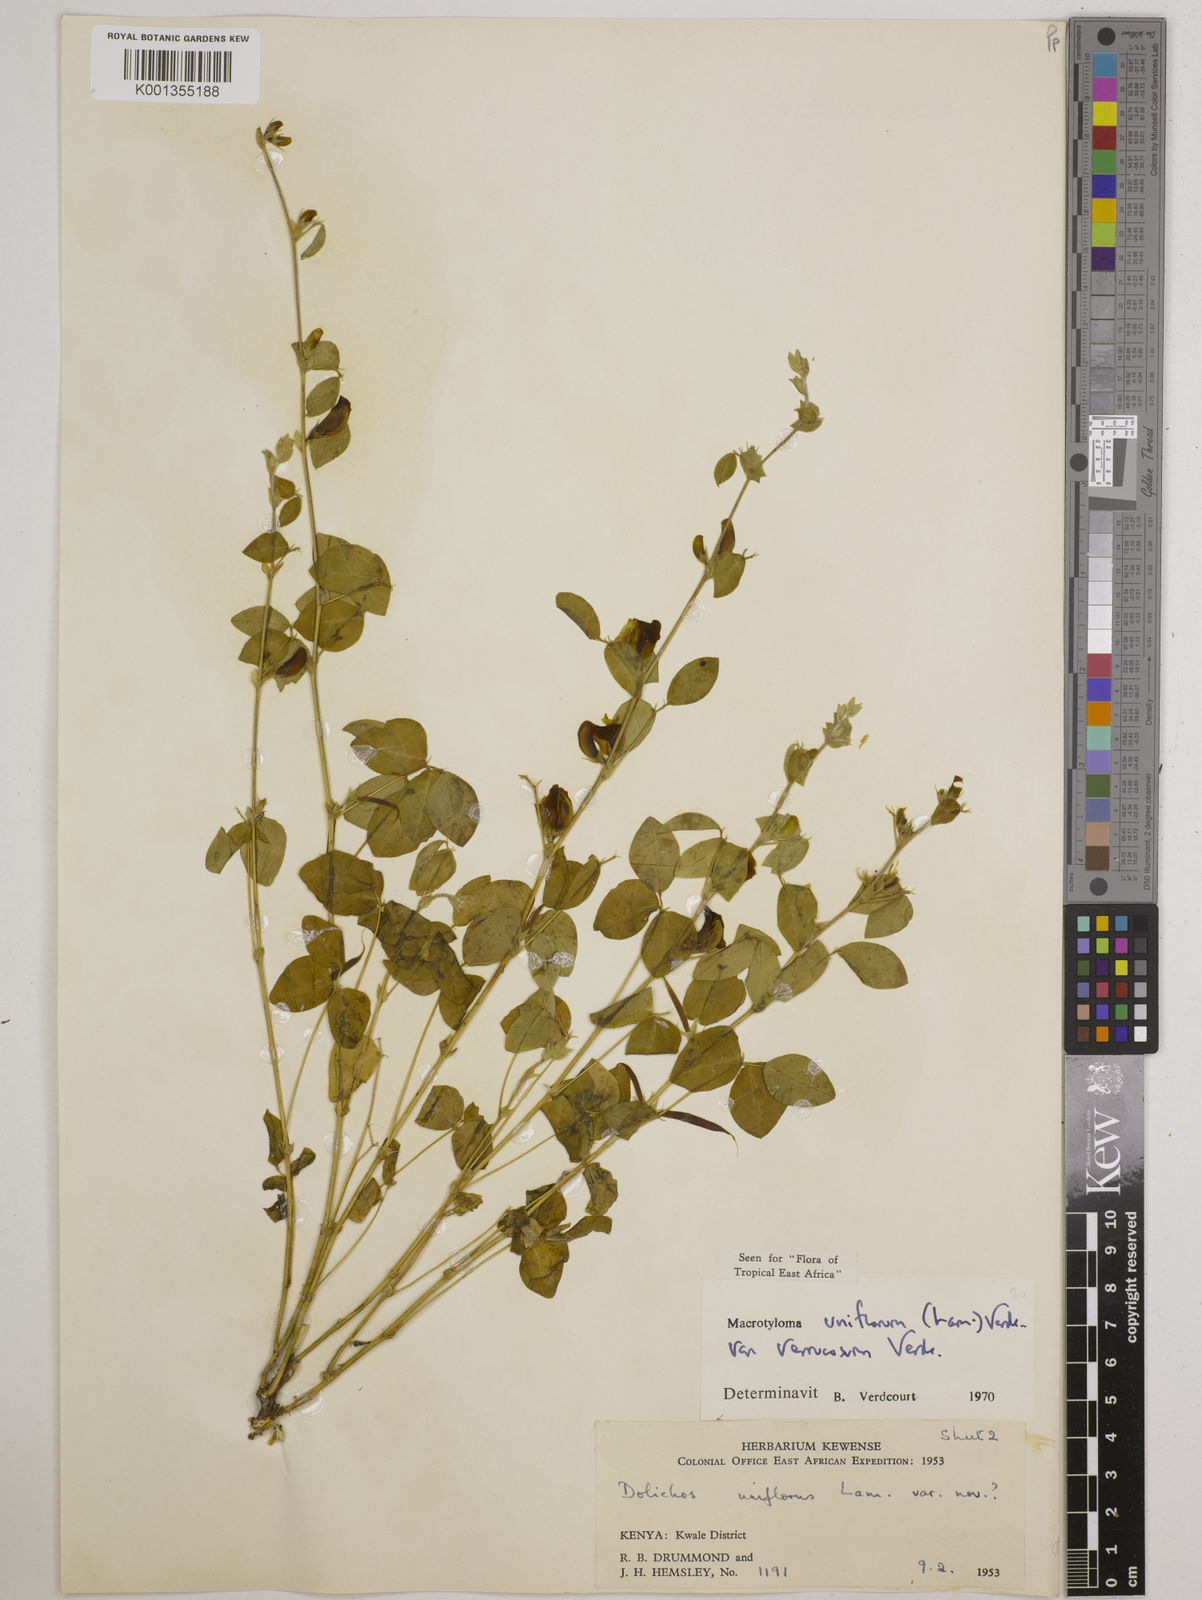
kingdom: Plantae
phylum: Tracheophyta
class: Magnoliopsida
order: Fabales
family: Fabaceae
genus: Macrotyloma
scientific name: Macrotyloma
